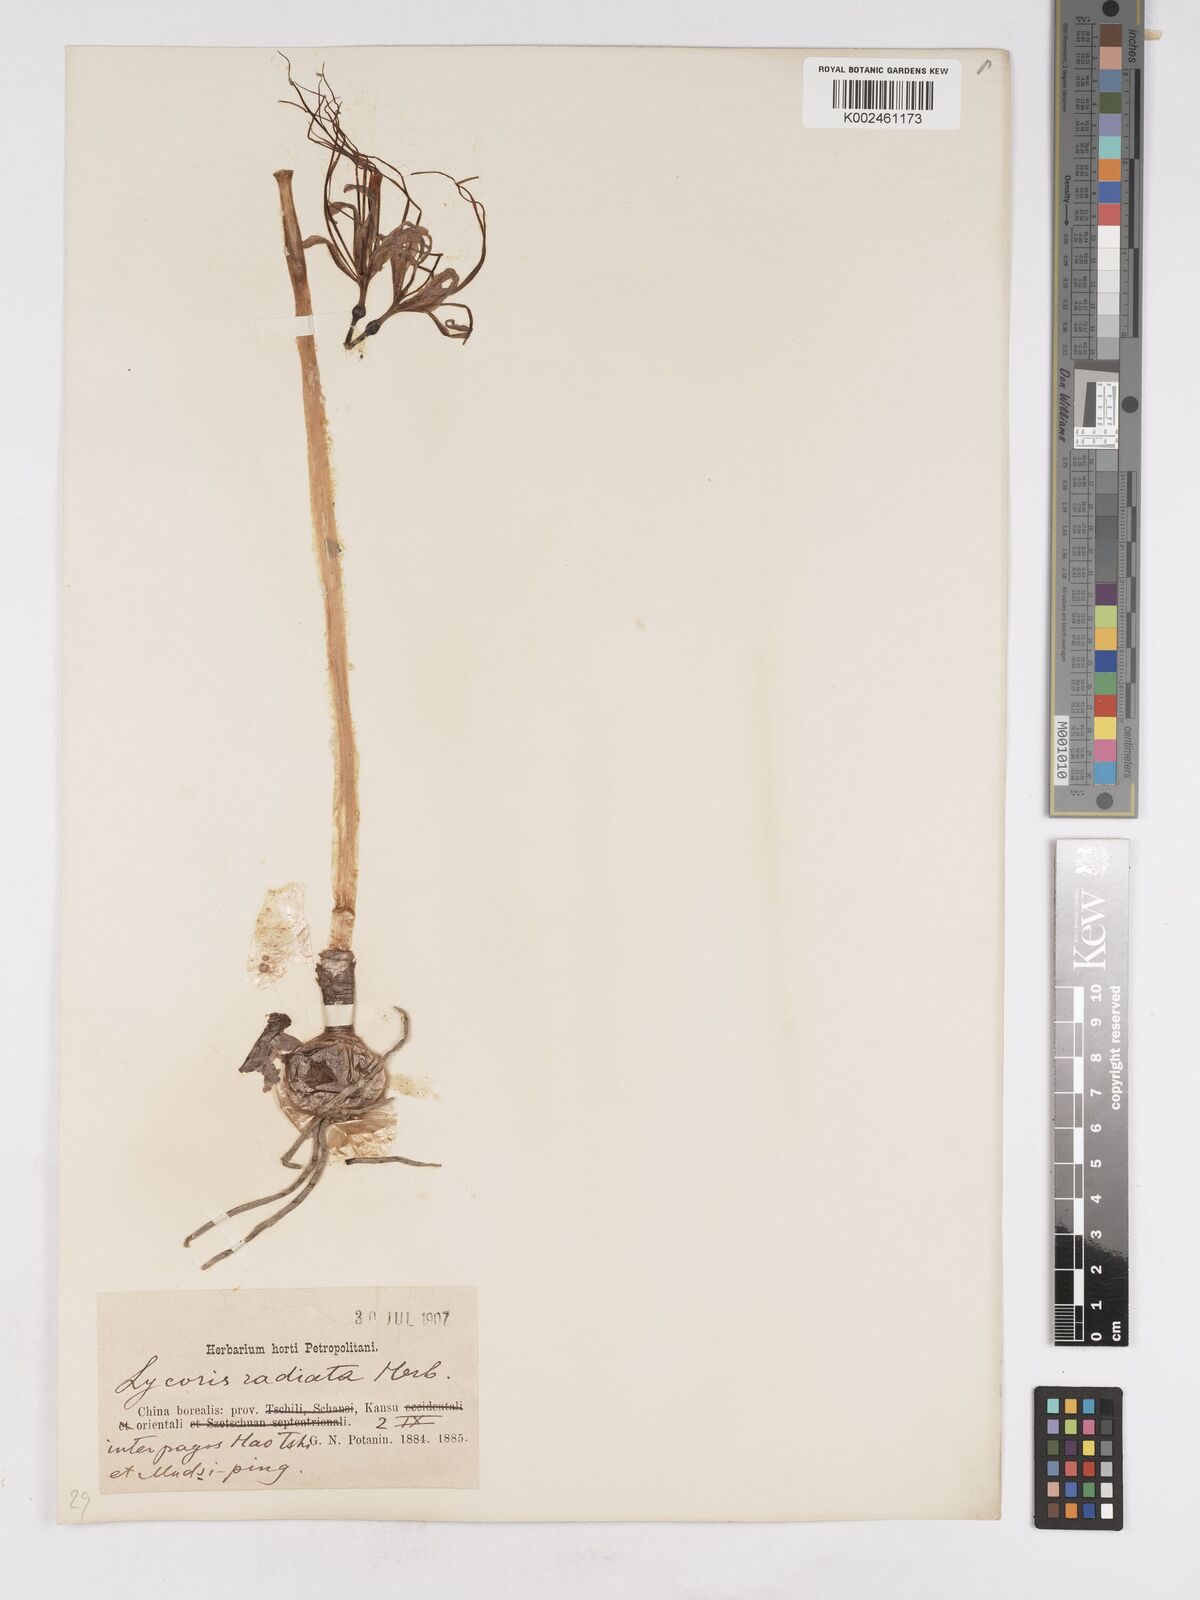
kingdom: Plantae
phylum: Tracheophyta
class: Liliopsida
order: Asparagales
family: Amaryllidaceae
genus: Lycoris
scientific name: Lycoris radiata
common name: Red spider lily
